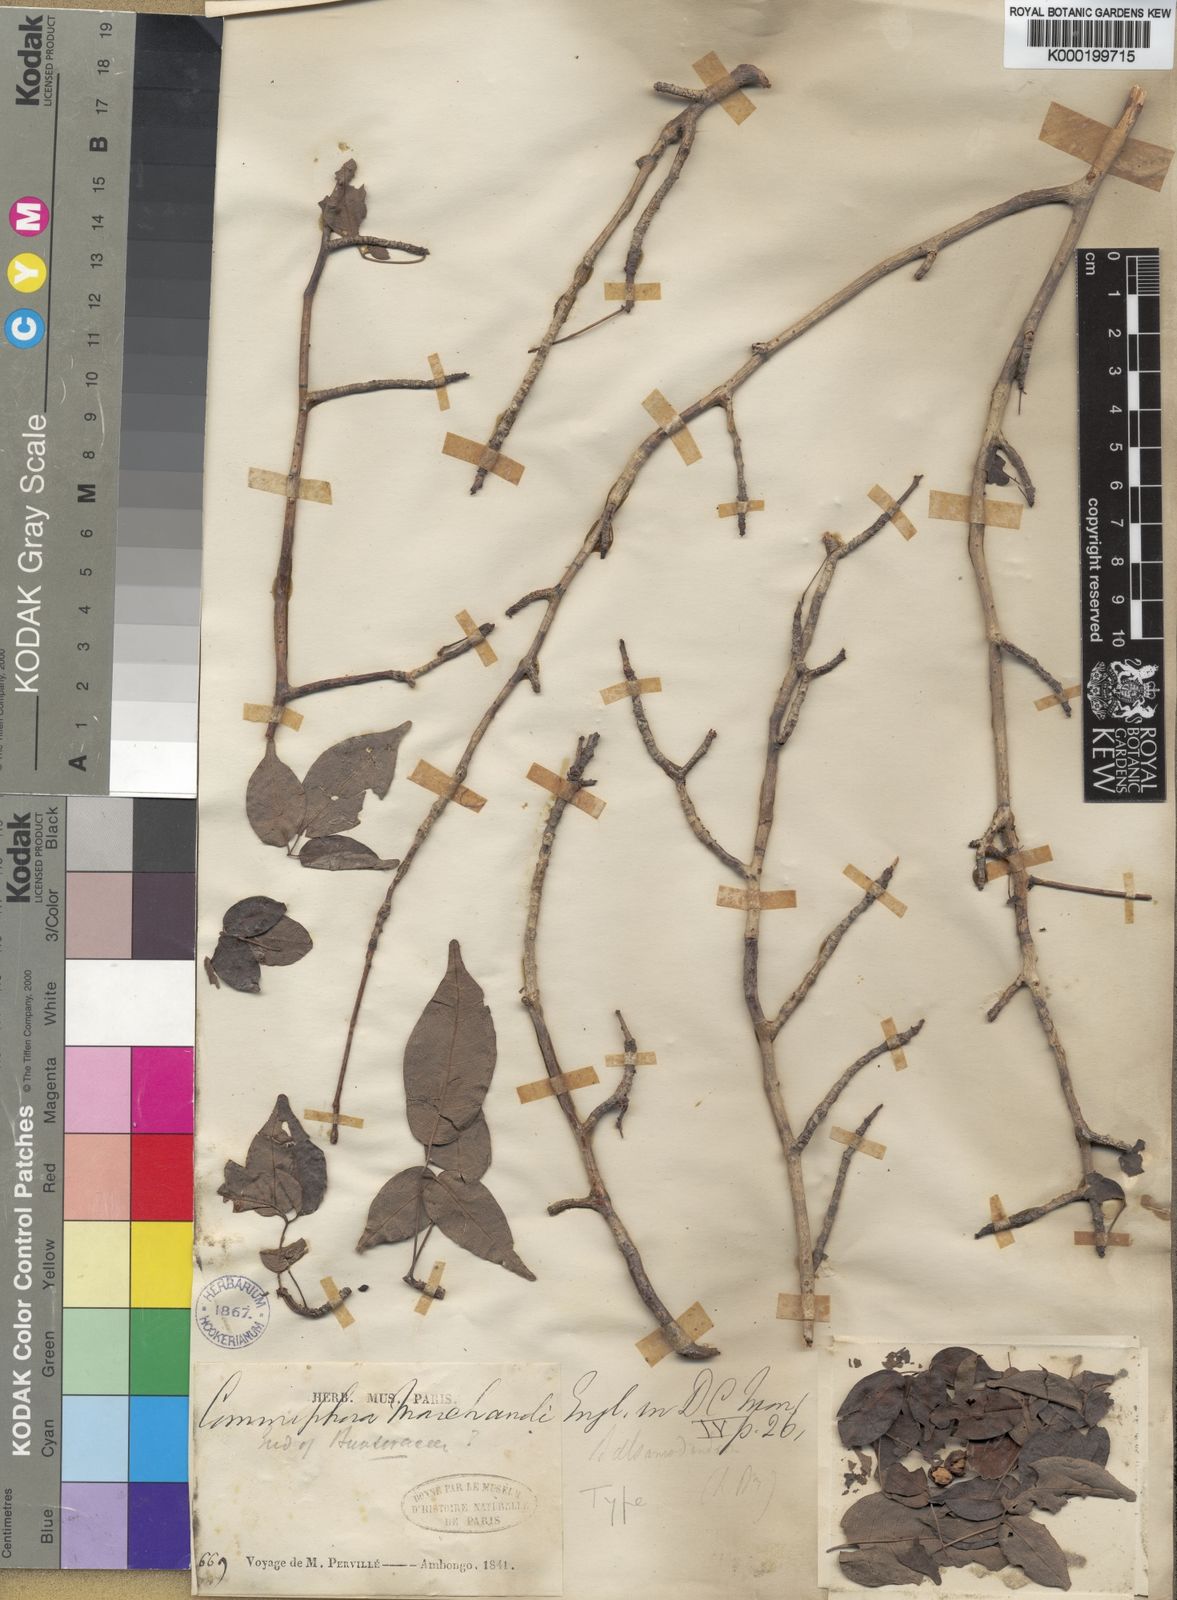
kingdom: Plantae
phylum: Tracheophyta
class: Magnoliopsida
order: Sapindales
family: Burseraceae
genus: Commiphora
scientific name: Commiphora marchandii
